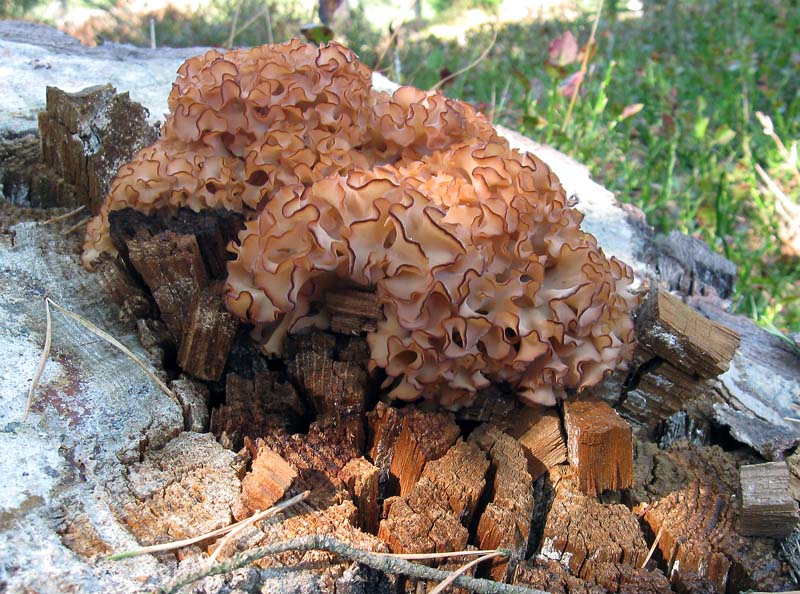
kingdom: Fungi
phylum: Basidiomycota
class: Agaricomycetes
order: Polyporales
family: Sparassidaceae
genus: Sparassis
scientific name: Sparassis crispa
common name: kruset blomkålssvamp
